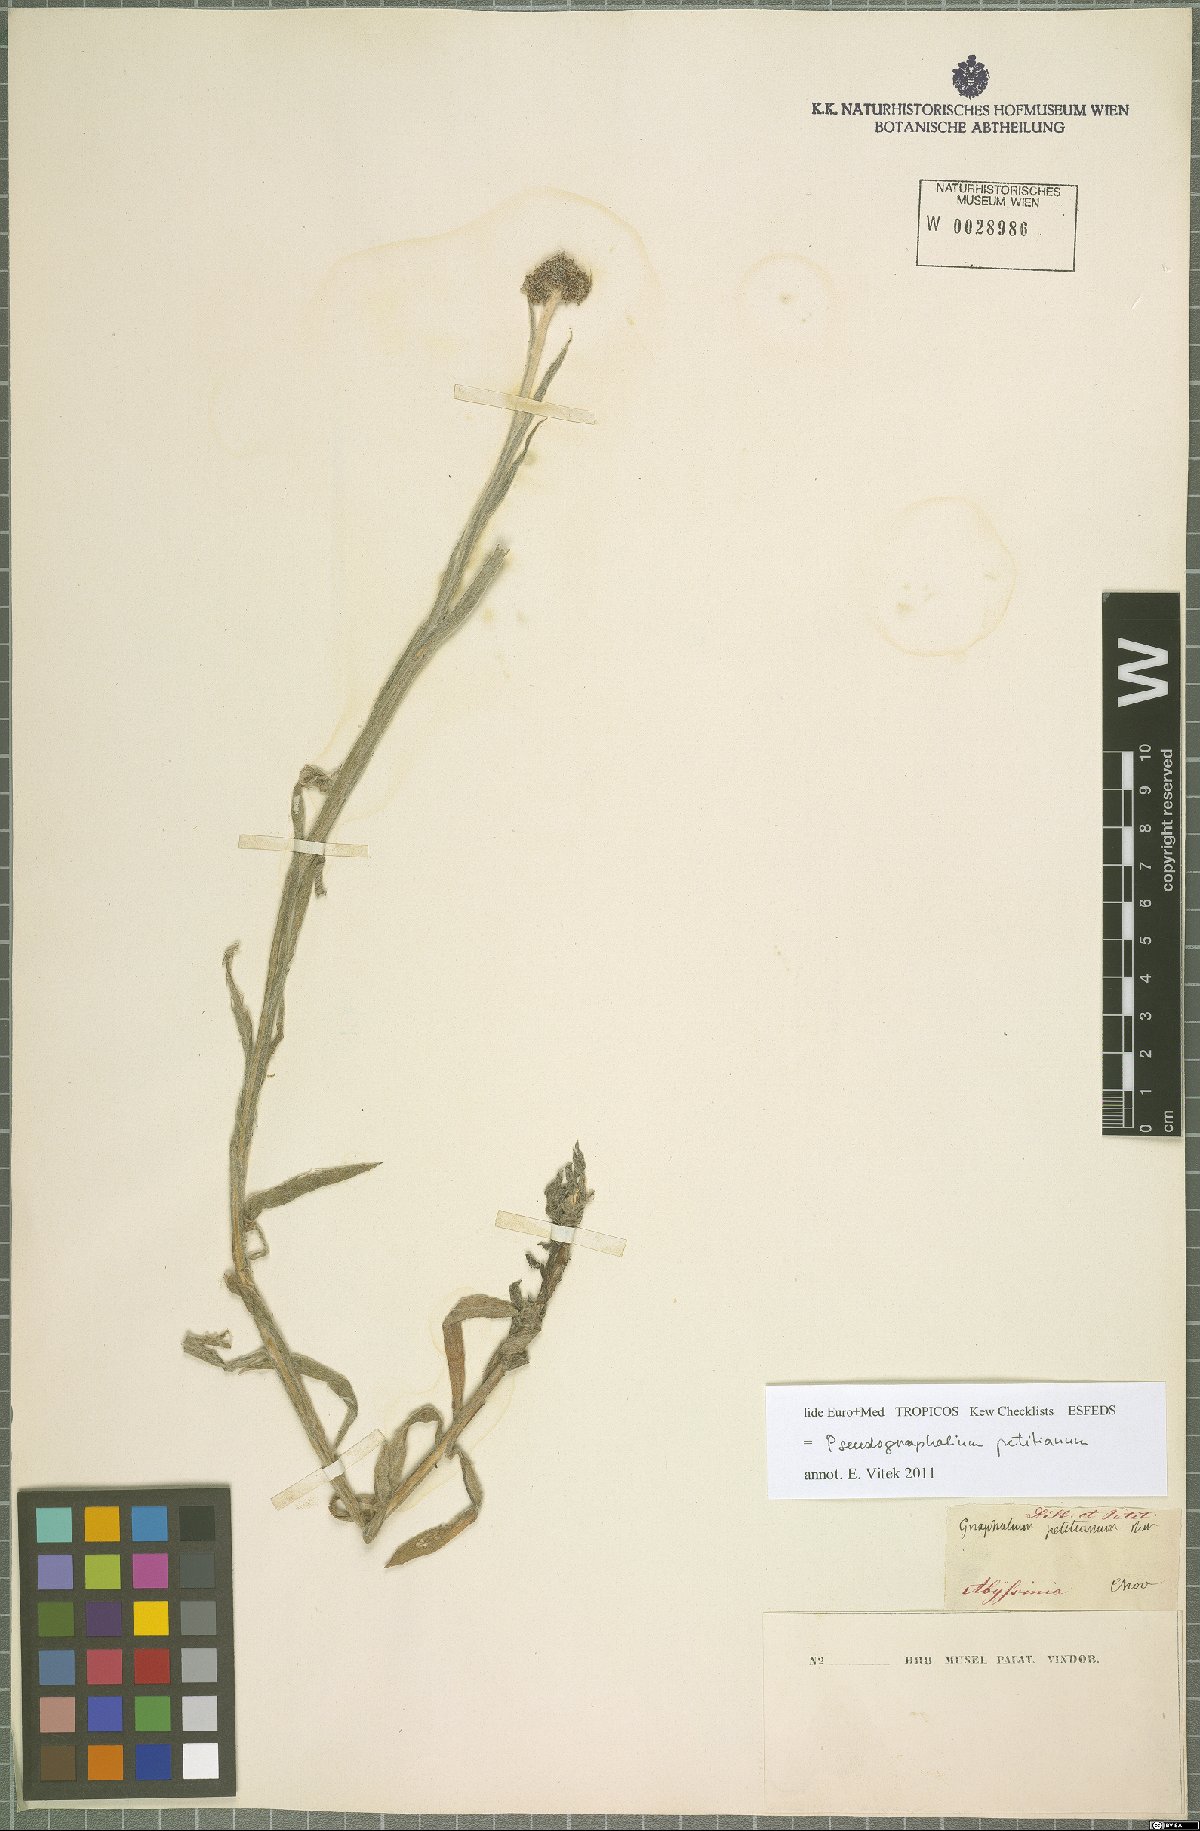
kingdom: Plantae
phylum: Tracheophyta
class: Magnoliopsida
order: Asterales
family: Asteraceae
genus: Pseudognaphalium
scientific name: Pseudognaphalium petitianum
